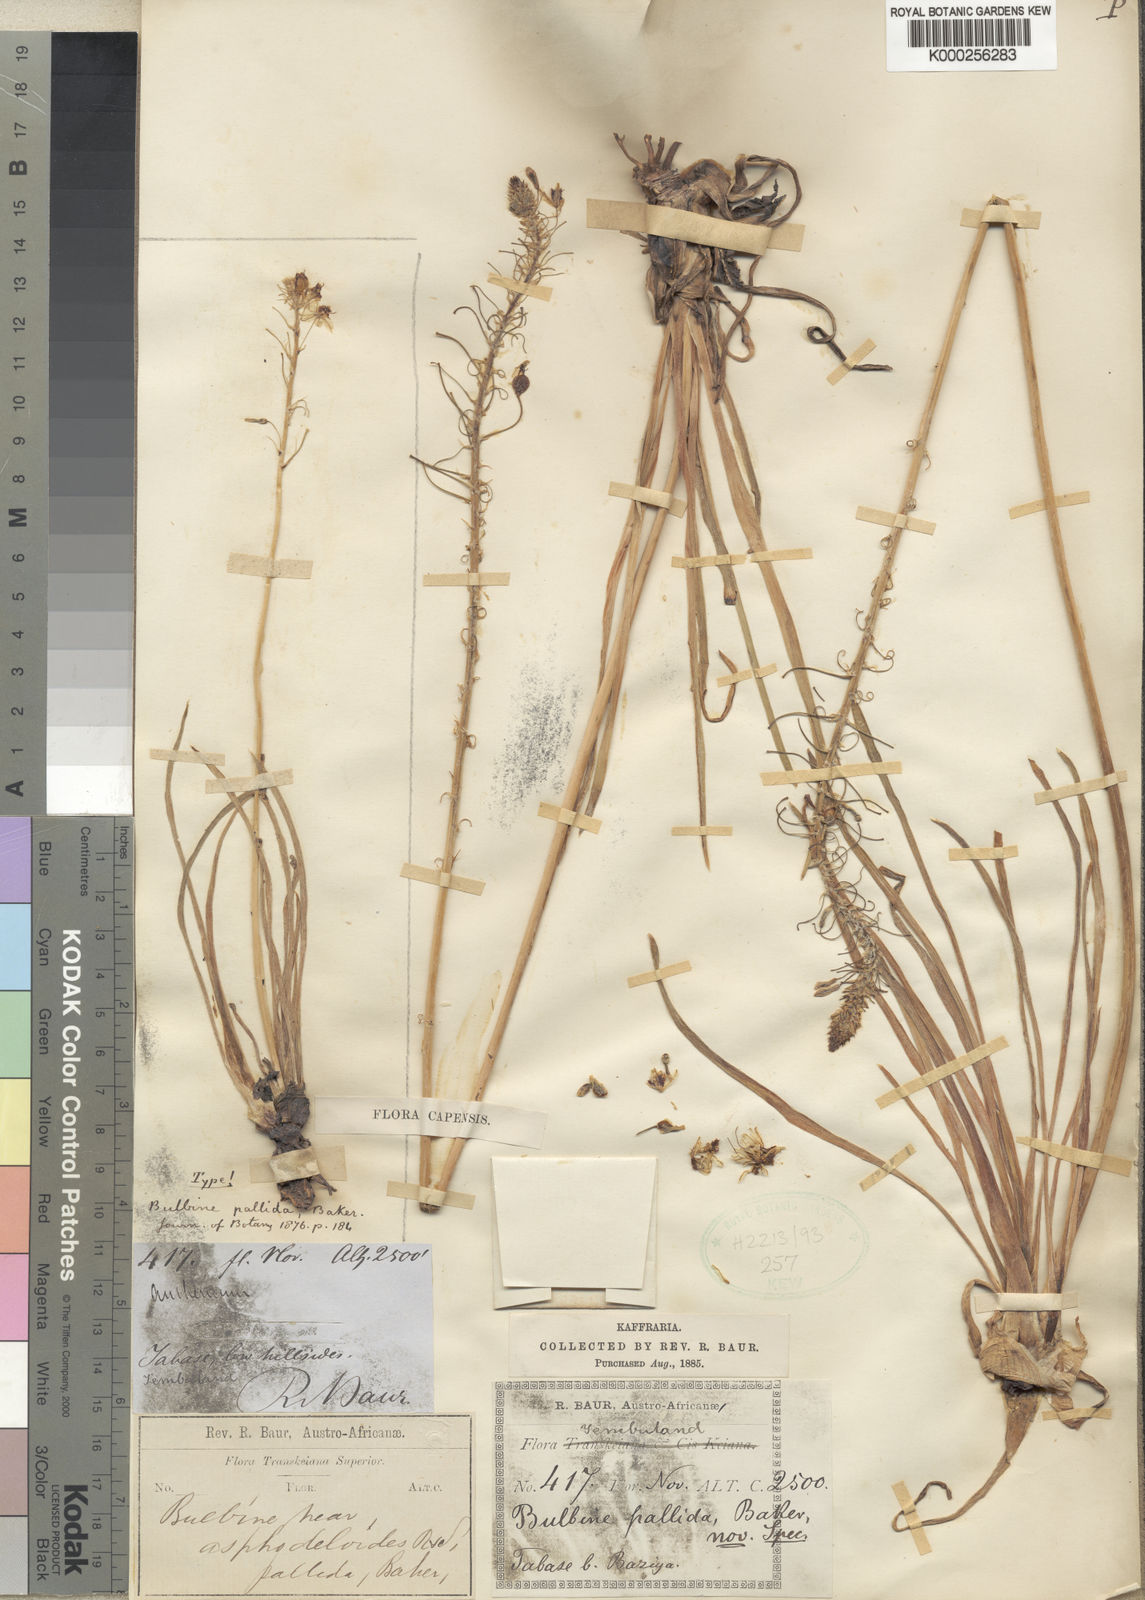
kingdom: Plantae
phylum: Tracheophyta
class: Liliopsida
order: Asparagales
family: Asphodelaceae
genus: Bulbine
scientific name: Bulbine asphodeloides
